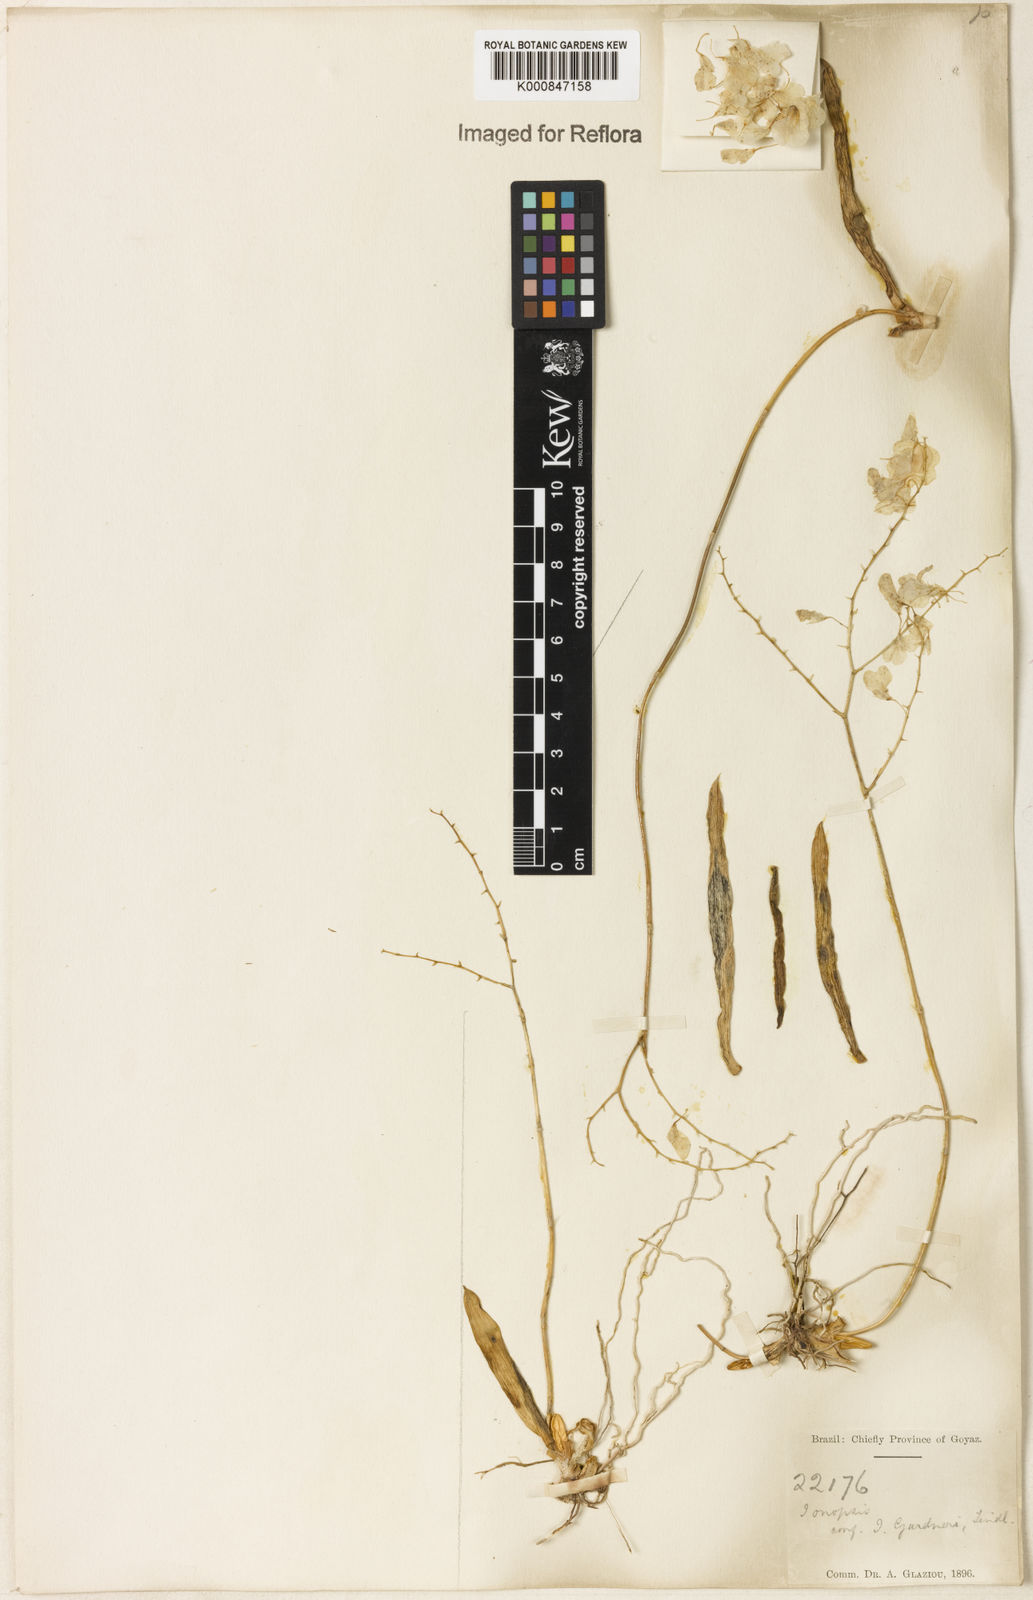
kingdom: Plantae
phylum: Tracheophyta
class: Liliopsida
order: Asparagales
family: Orchidaceae
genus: Ionopsis
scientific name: Ionopsis utricularioides
